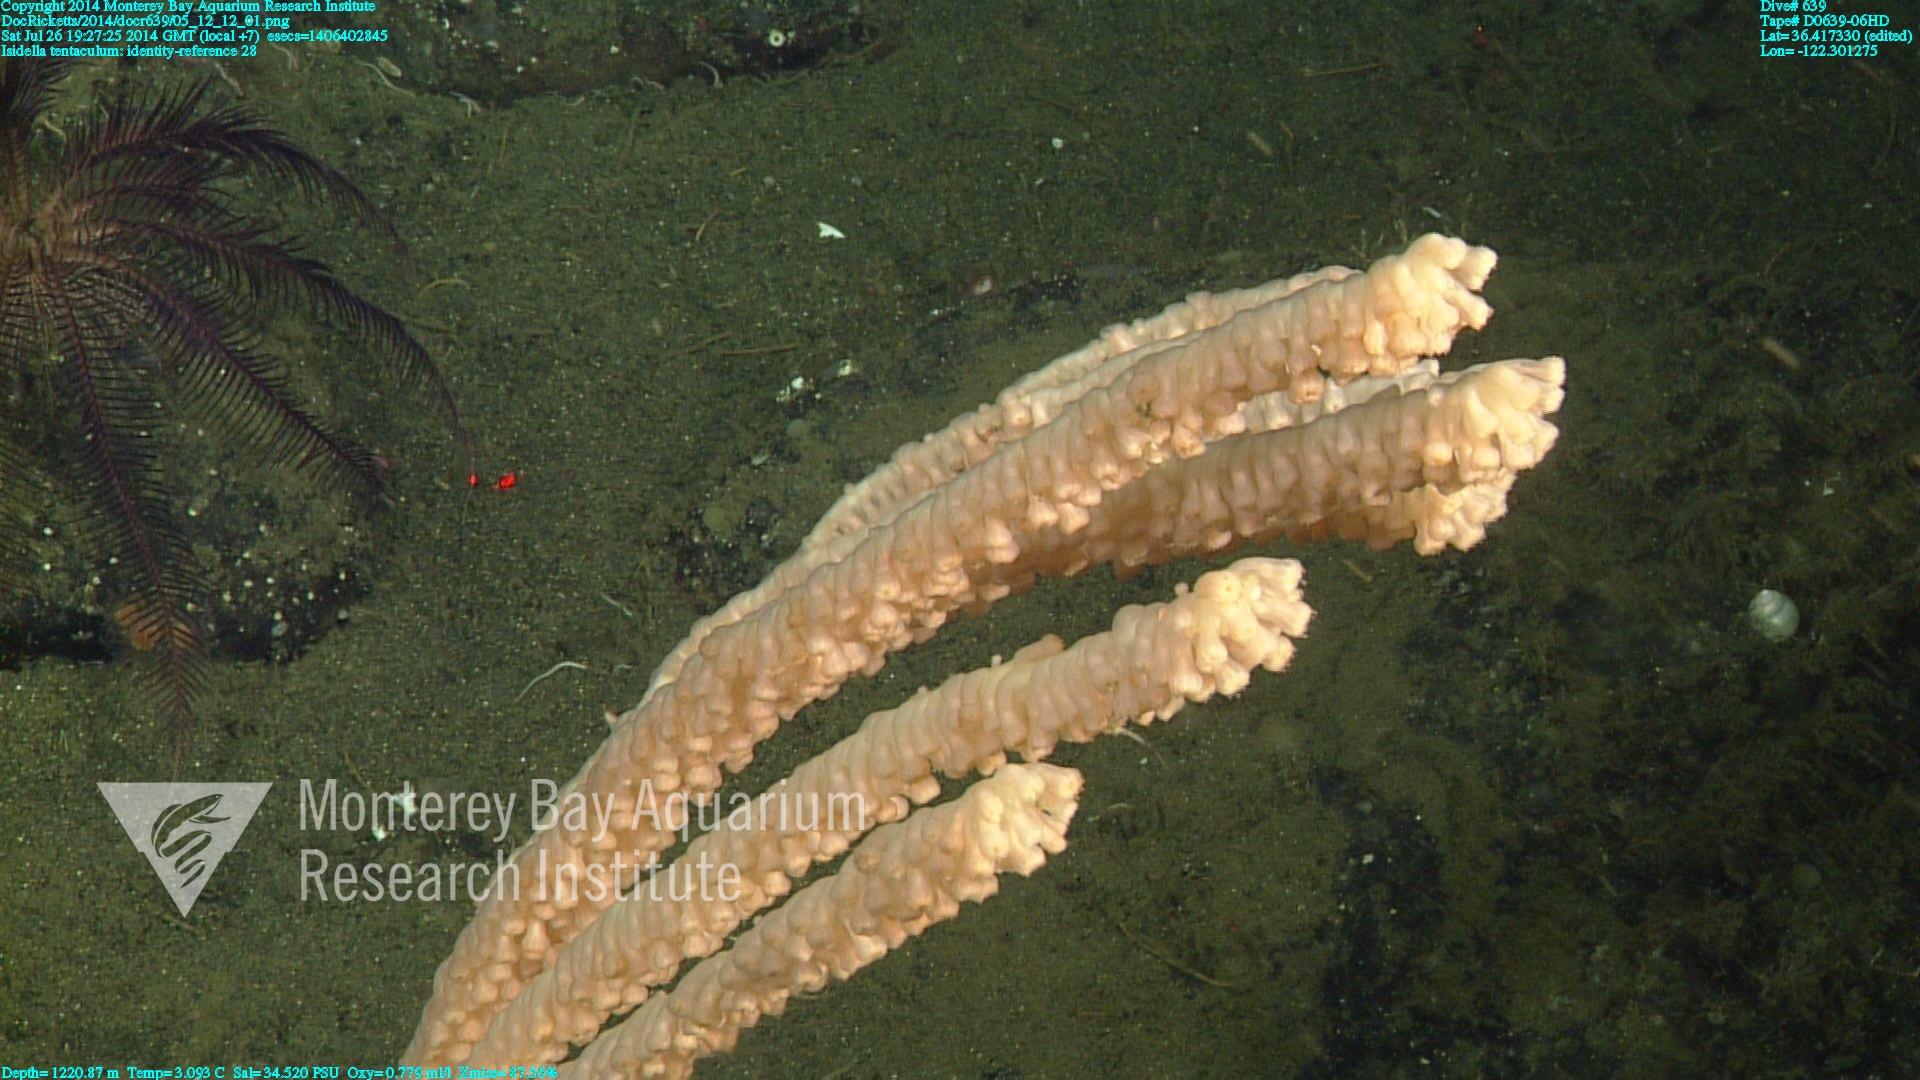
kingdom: Animalia
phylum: Cnidaria
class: Anthozoa
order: Scleralcyonacea
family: Keratoisididae
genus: Isidella
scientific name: Isidella tentaculum
